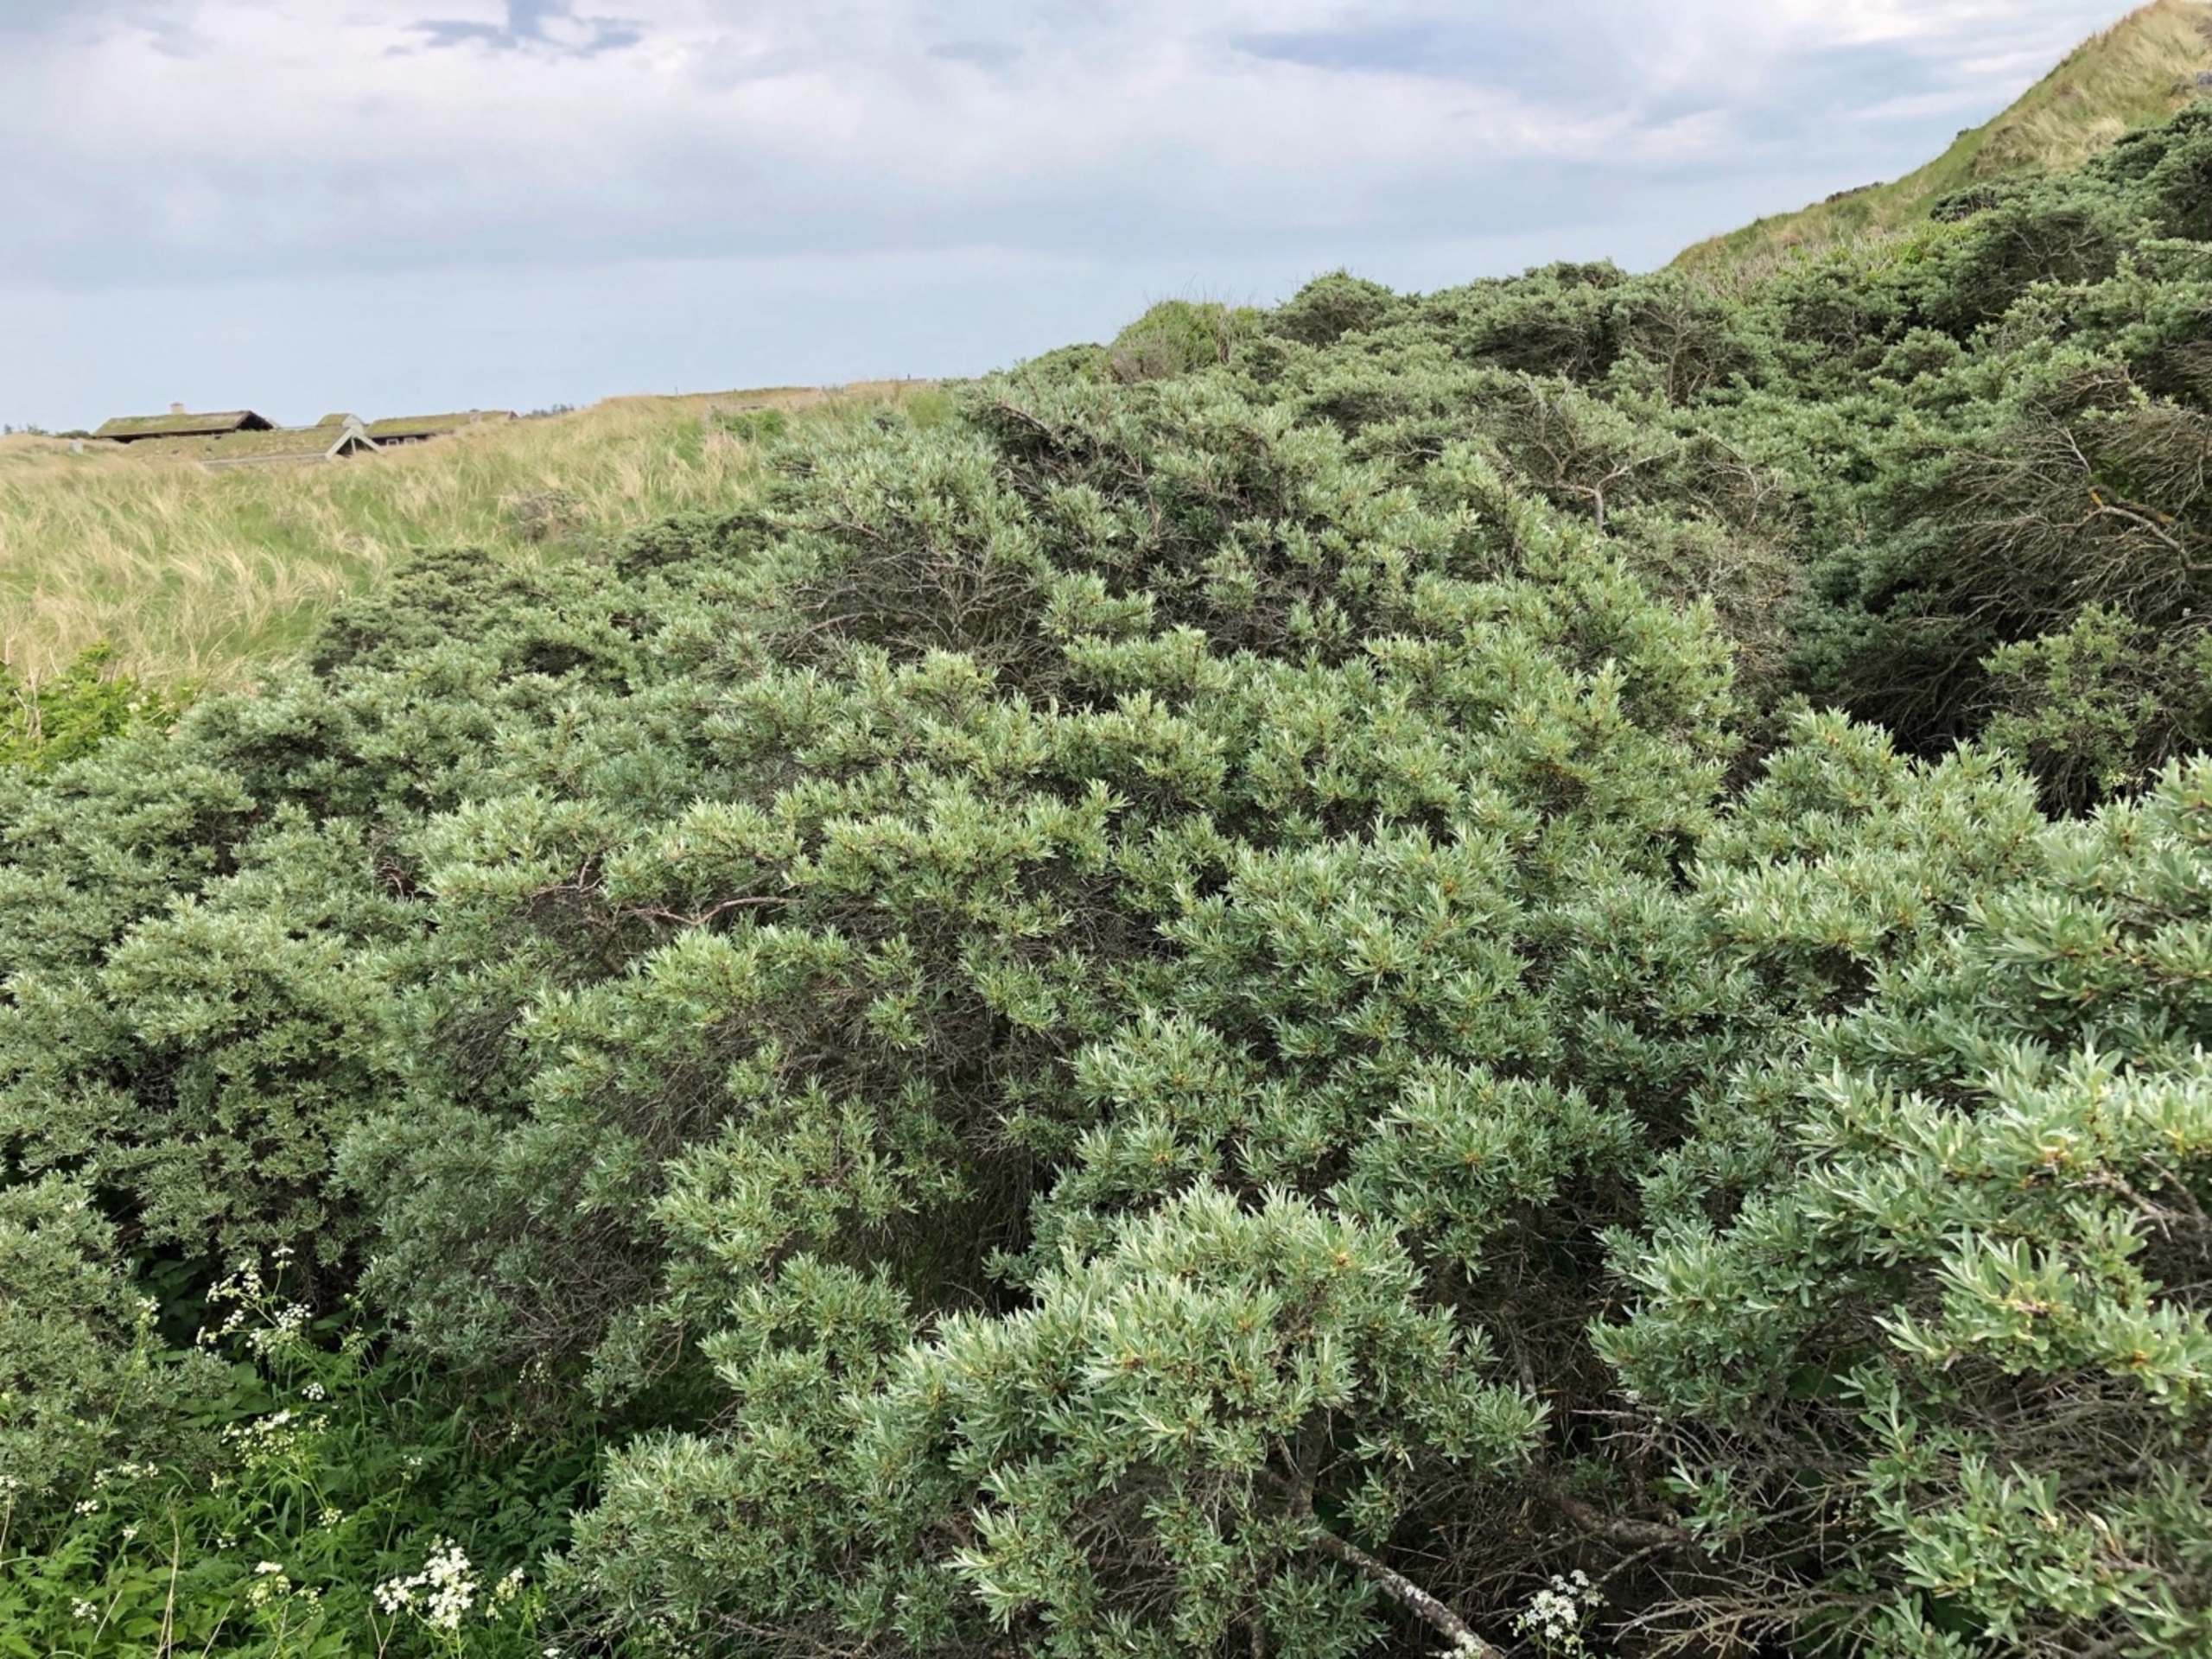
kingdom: Plantae
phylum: Tracheophyta
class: Magnoliopsida
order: Rosales
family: Elaeagnaceae
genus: Hippophae
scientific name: Hippophae rhamnoides
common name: Havtorn
